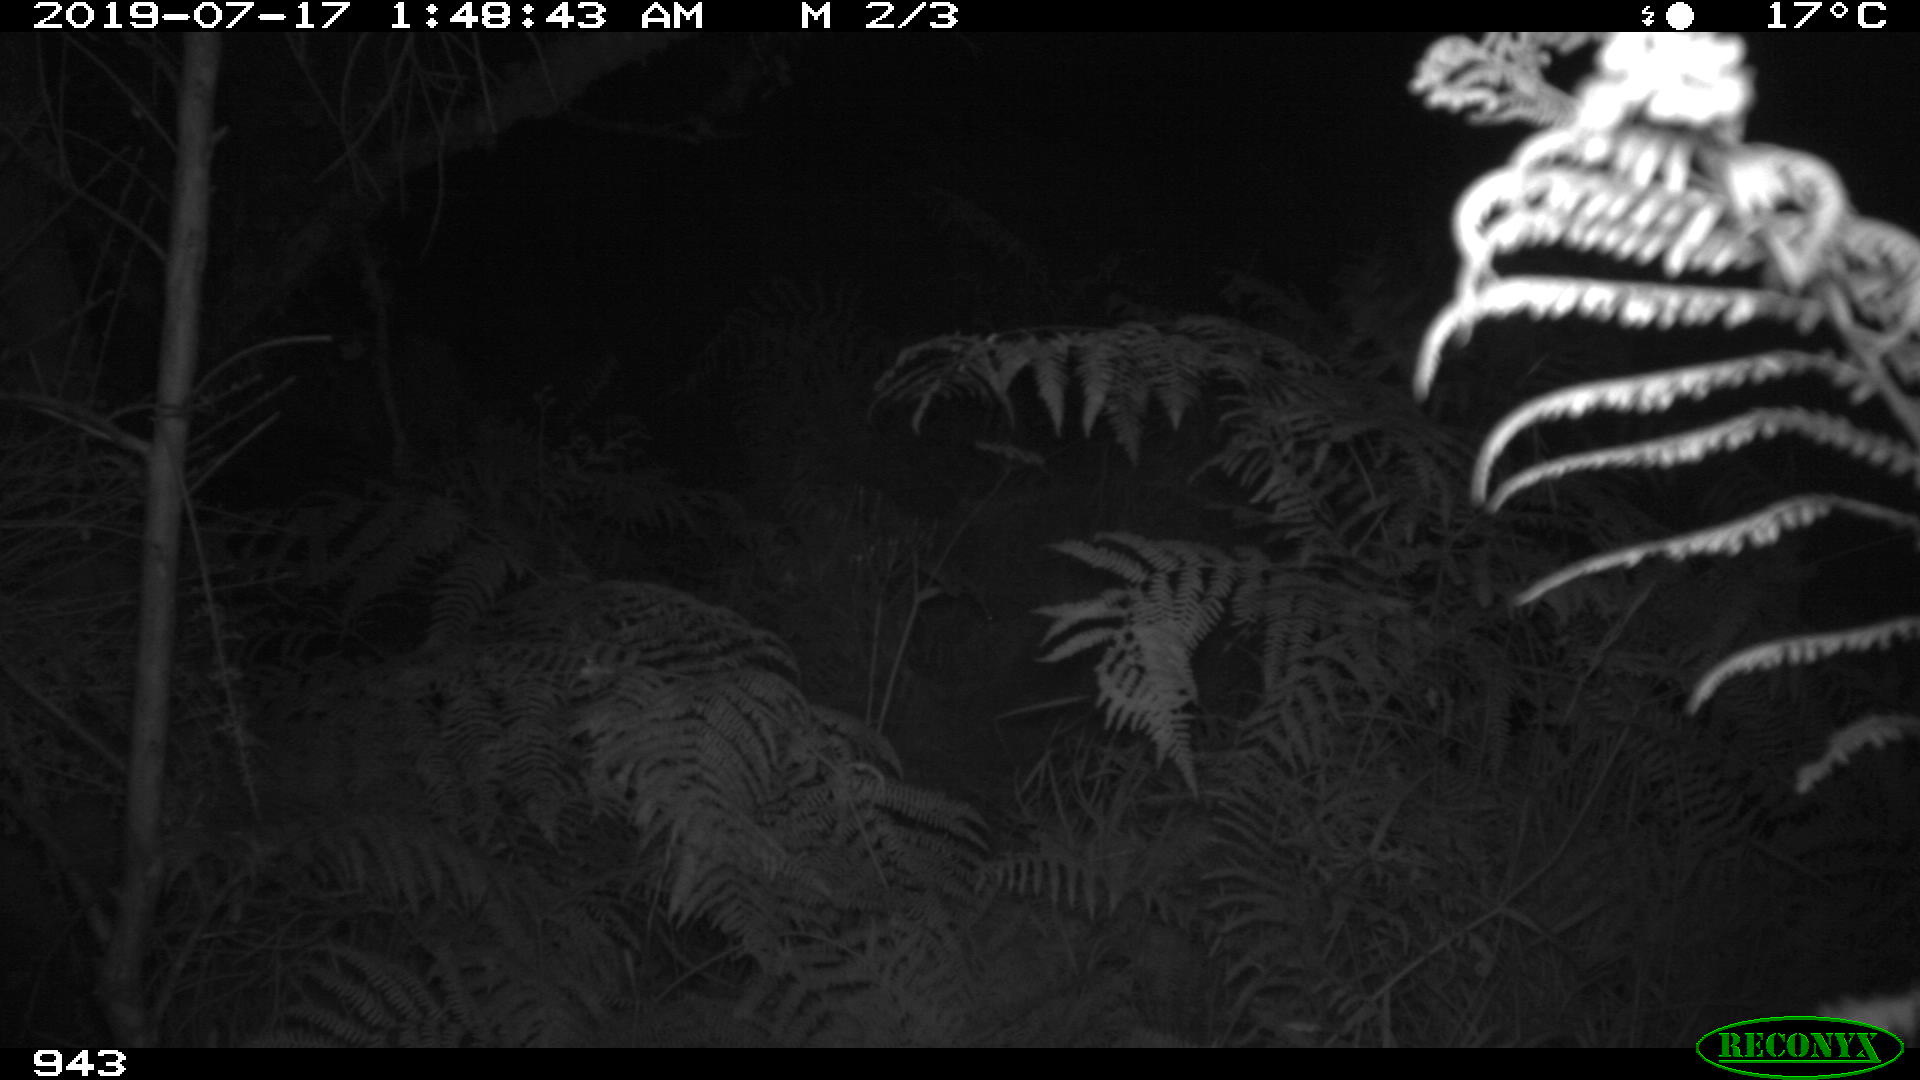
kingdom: Animalia
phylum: Chordata
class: Mammalia
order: Artiodactyla
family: Suidae
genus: Sus
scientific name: Sus scrofa
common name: Wild boar
